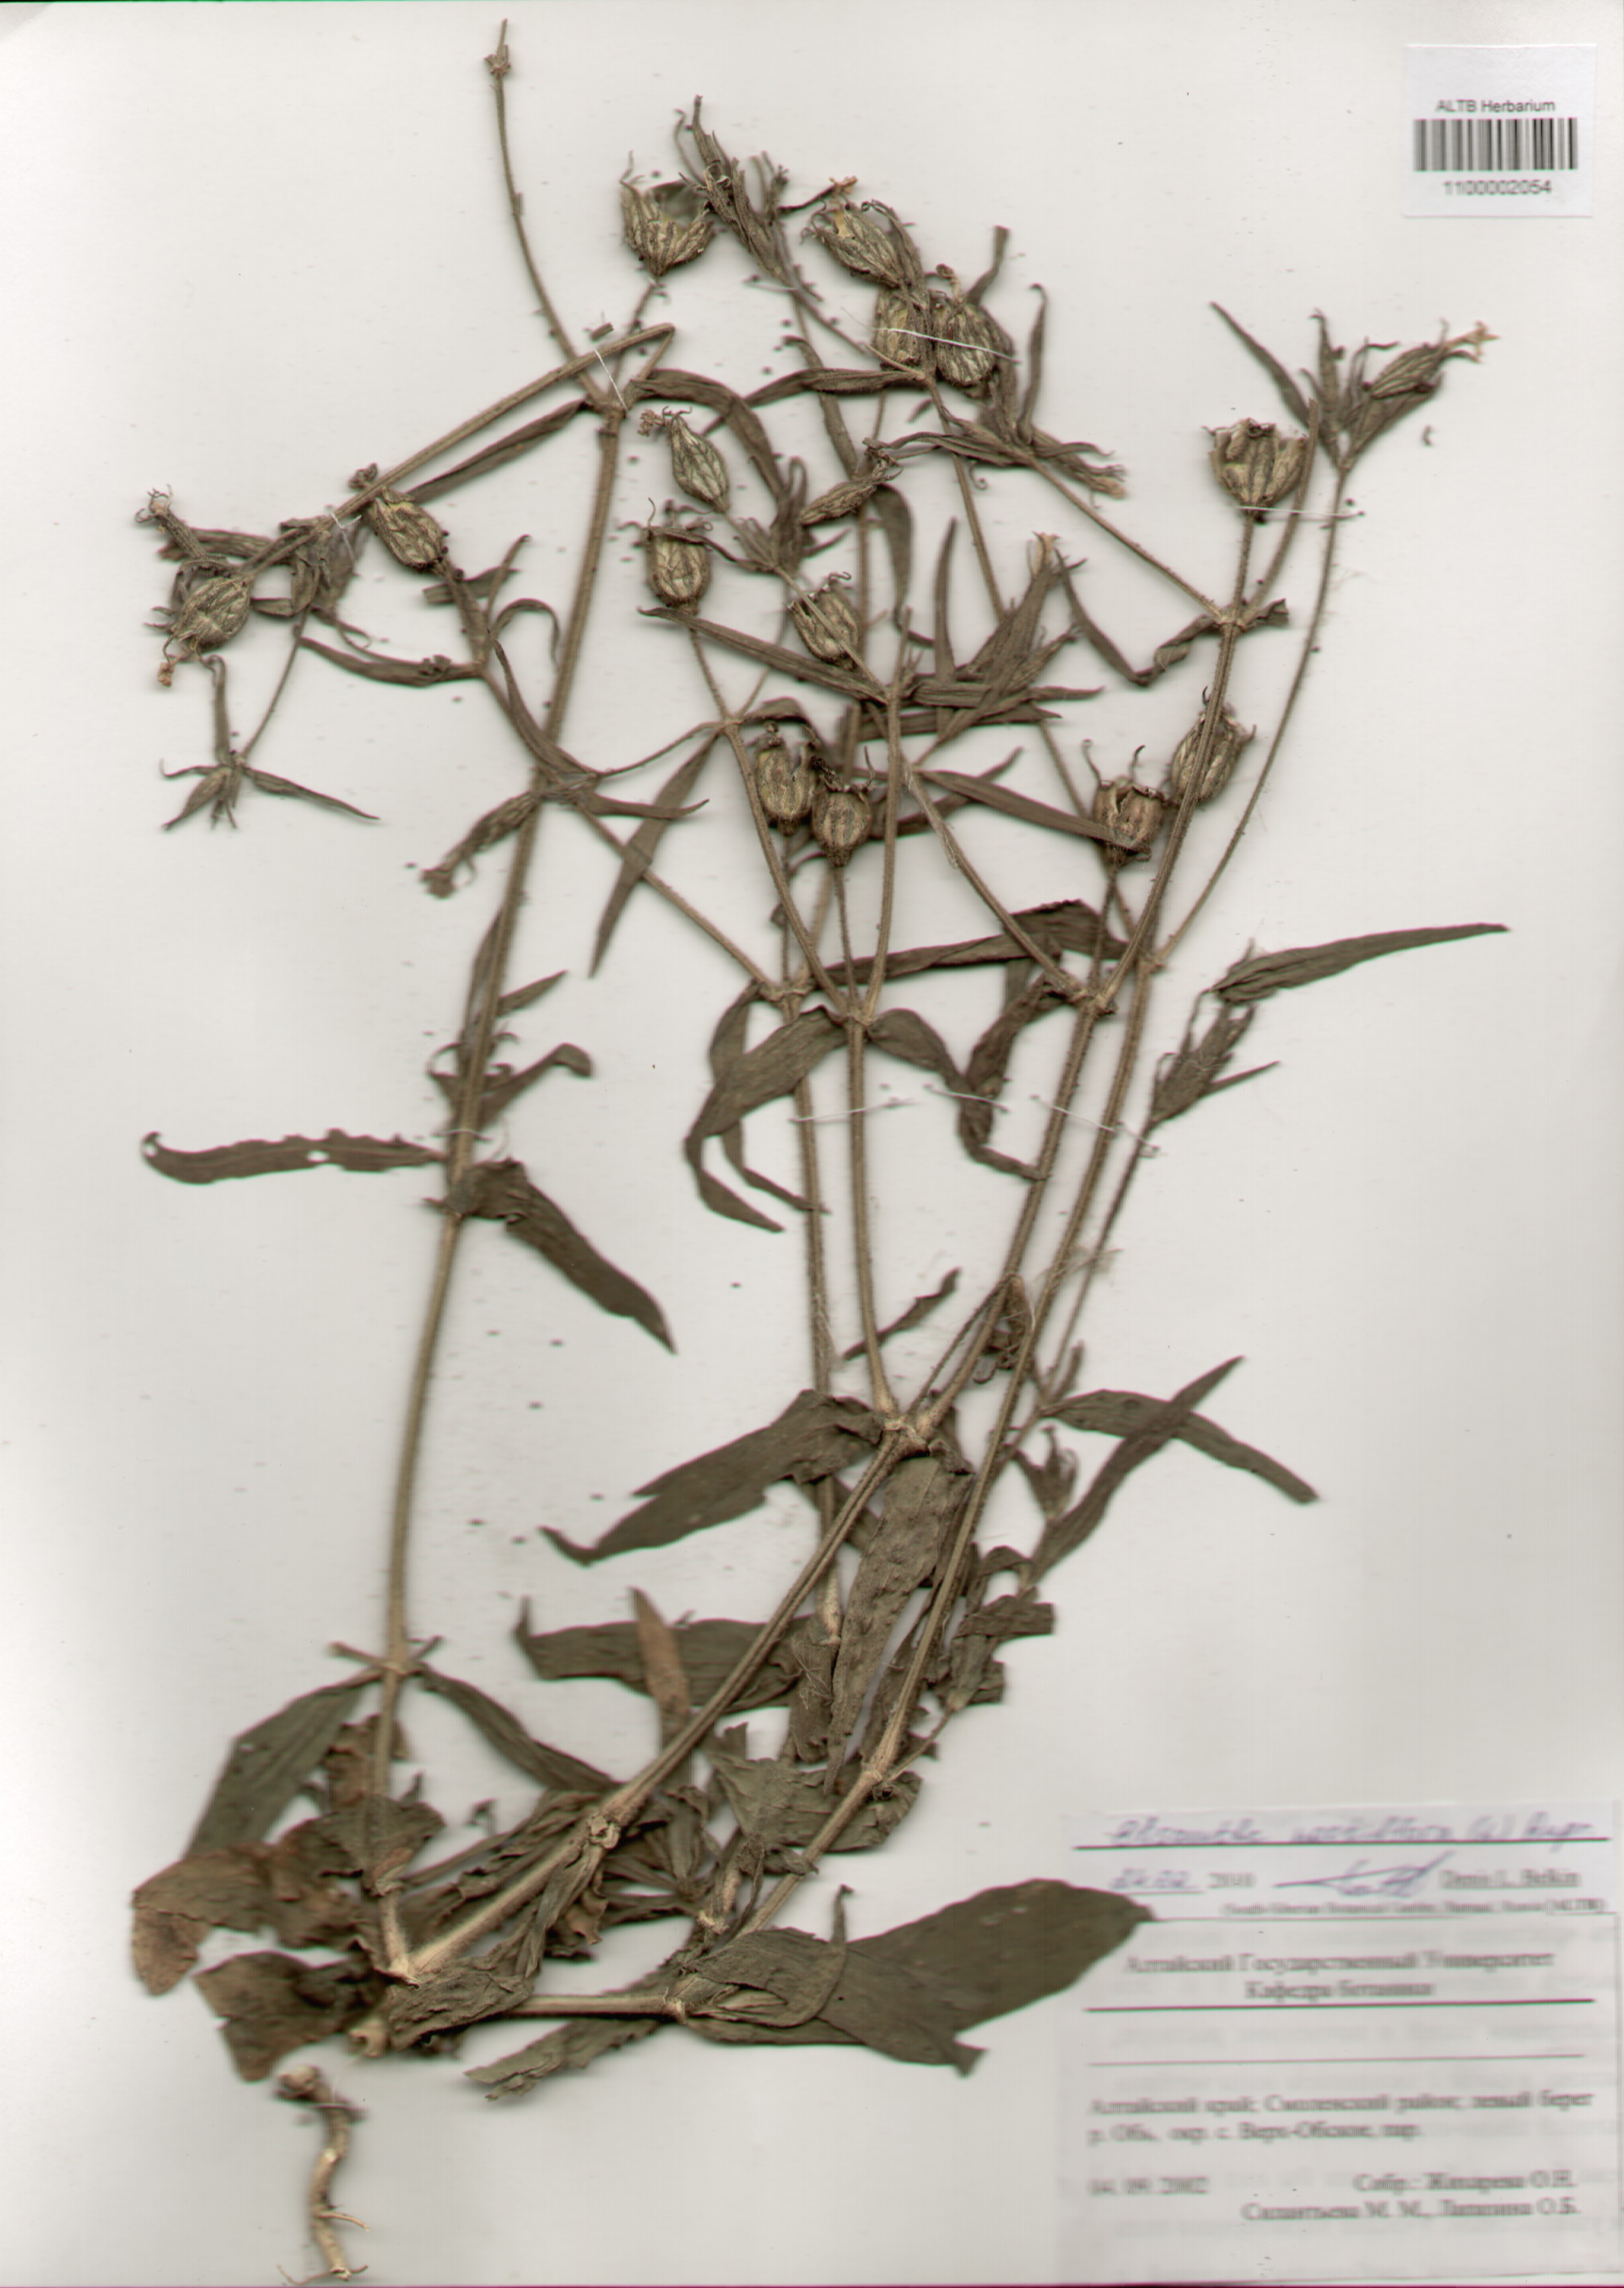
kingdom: Plantae
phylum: Tracheophyta
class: Magnoliopsida
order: Caryophyllales
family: Caryophyllaceae
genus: Silene
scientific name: Silene noctiflora
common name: Night-flowering catchfly
